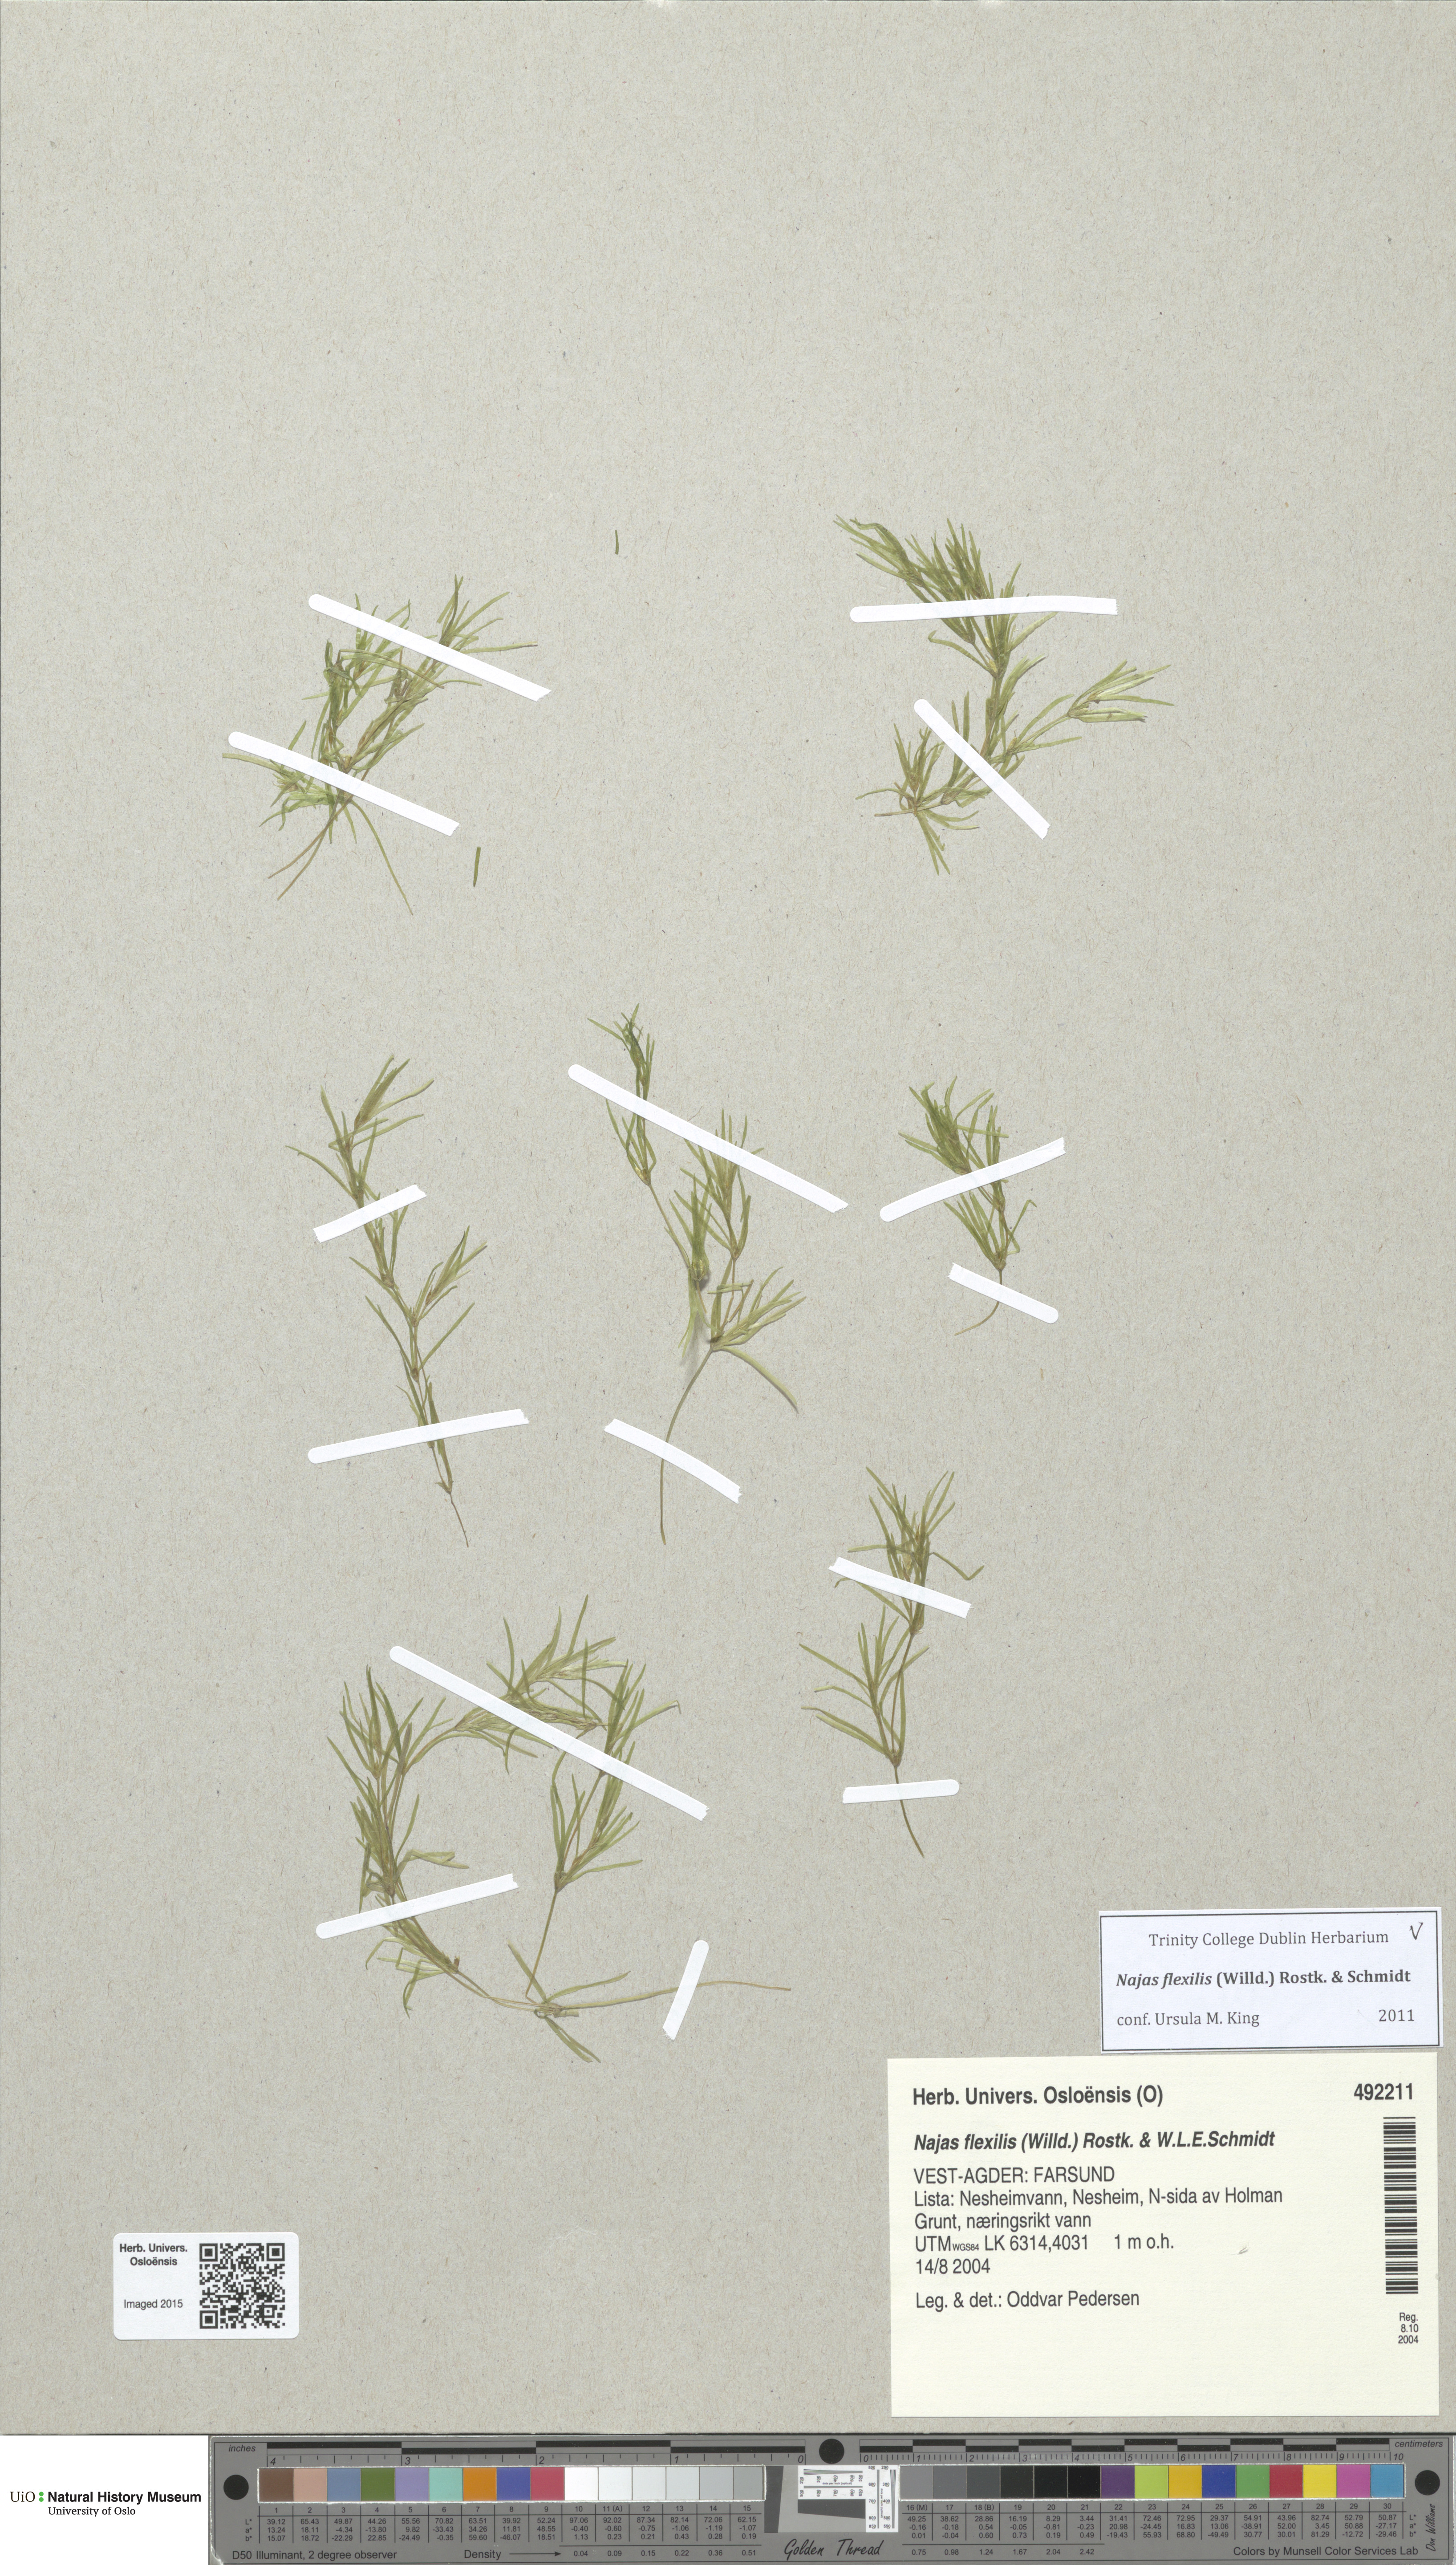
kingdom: Plantae
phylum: Tracheophyta
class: Liliopsida
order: Alismatales
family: Hydrocharitaceae
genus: Najas
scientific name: Najas flexilis
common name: Slender naiad
